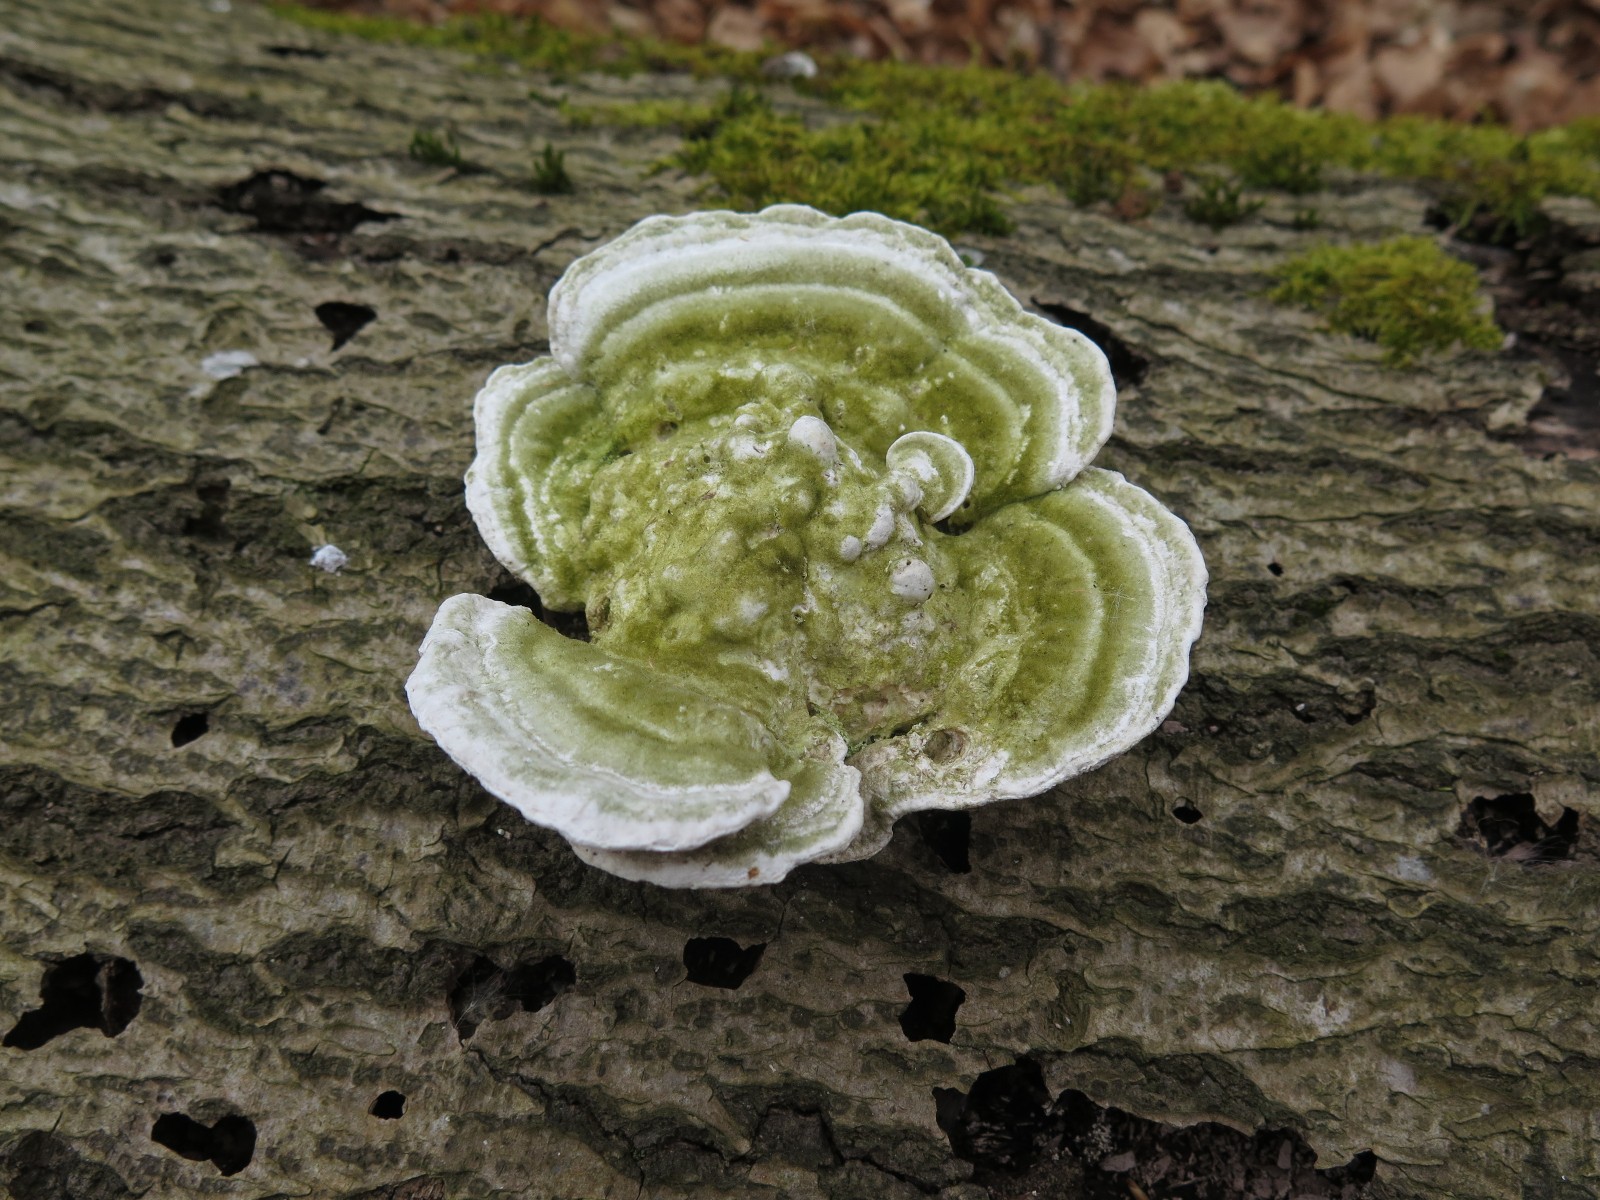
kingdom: Fungi
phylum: Basidiomycota
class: Agaricomycetes
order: Polyporales
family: Polyporaceae
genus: Trametes
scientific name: Trametes gibbosa
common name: puklet læderporesvamp
